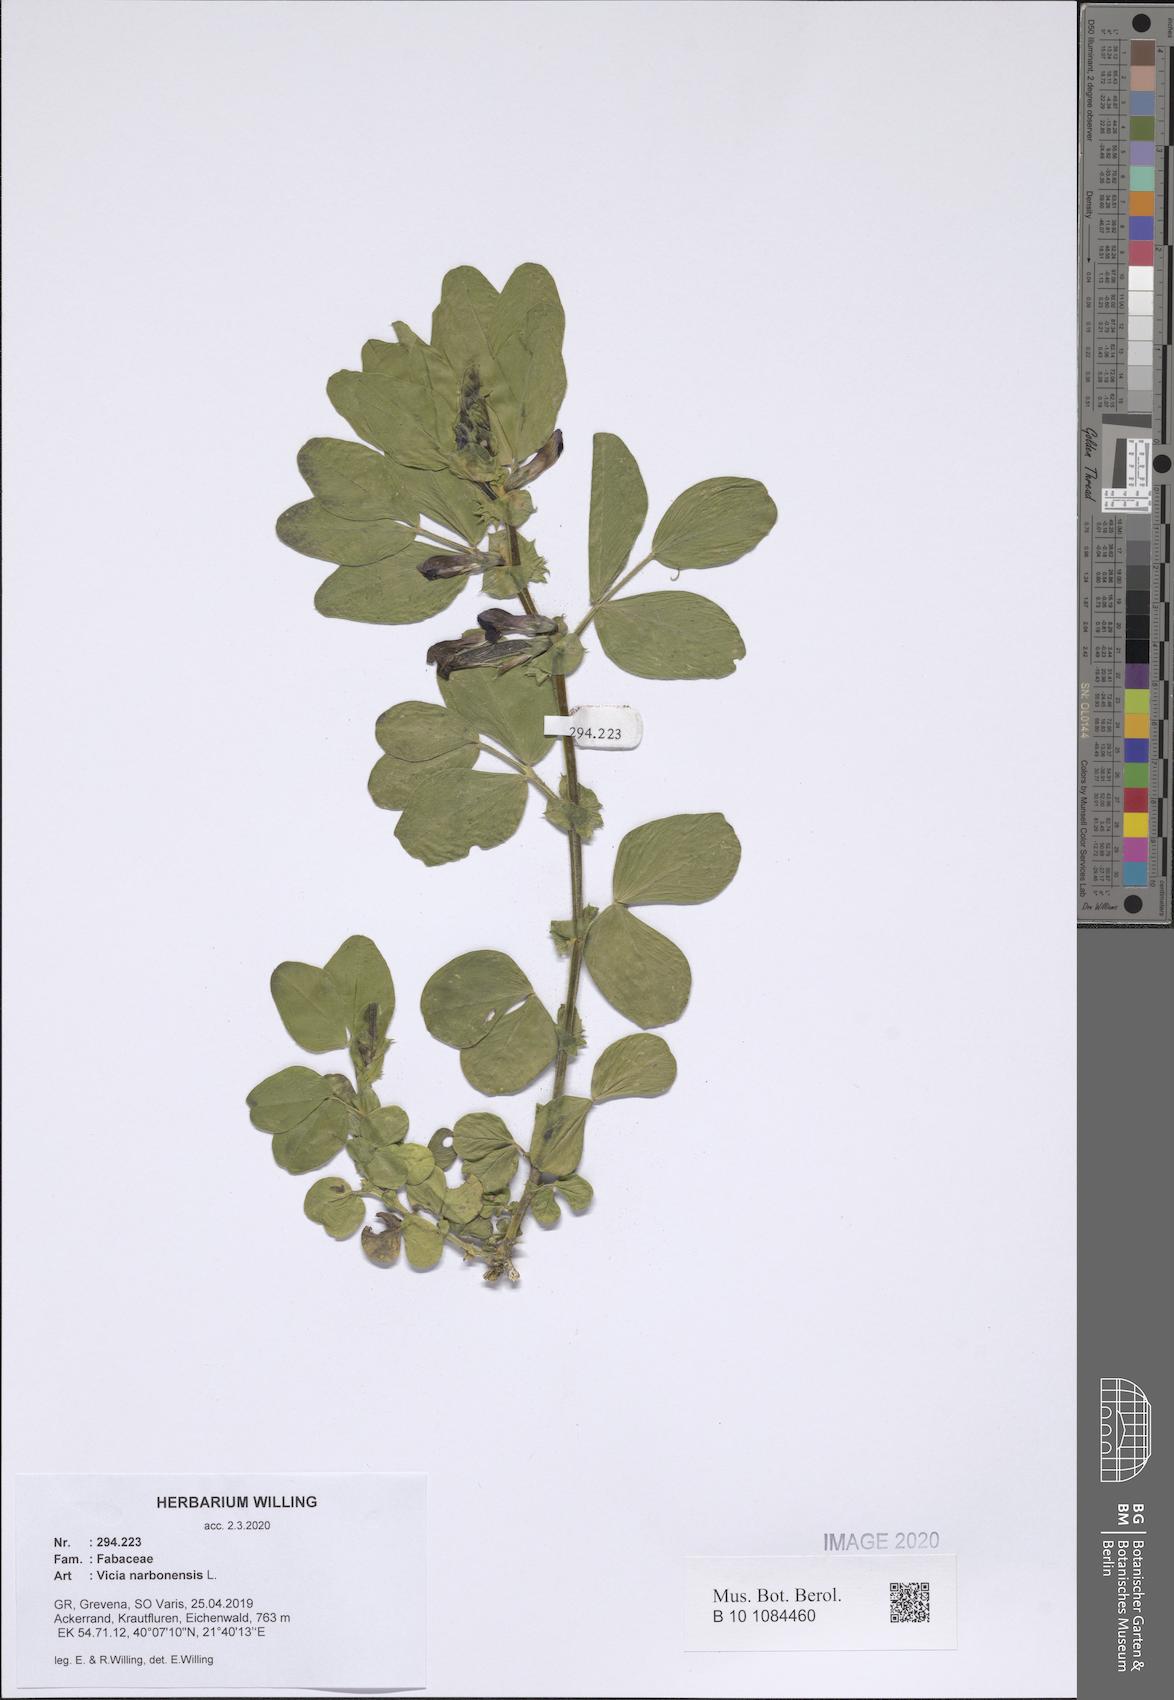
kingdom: Plantae
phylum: Tracheophyta
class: Magnoliopsida
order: Fabales
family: Fabaceae
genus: Vicia
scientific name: Vicia narbonensis
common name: Narbonne vetch
